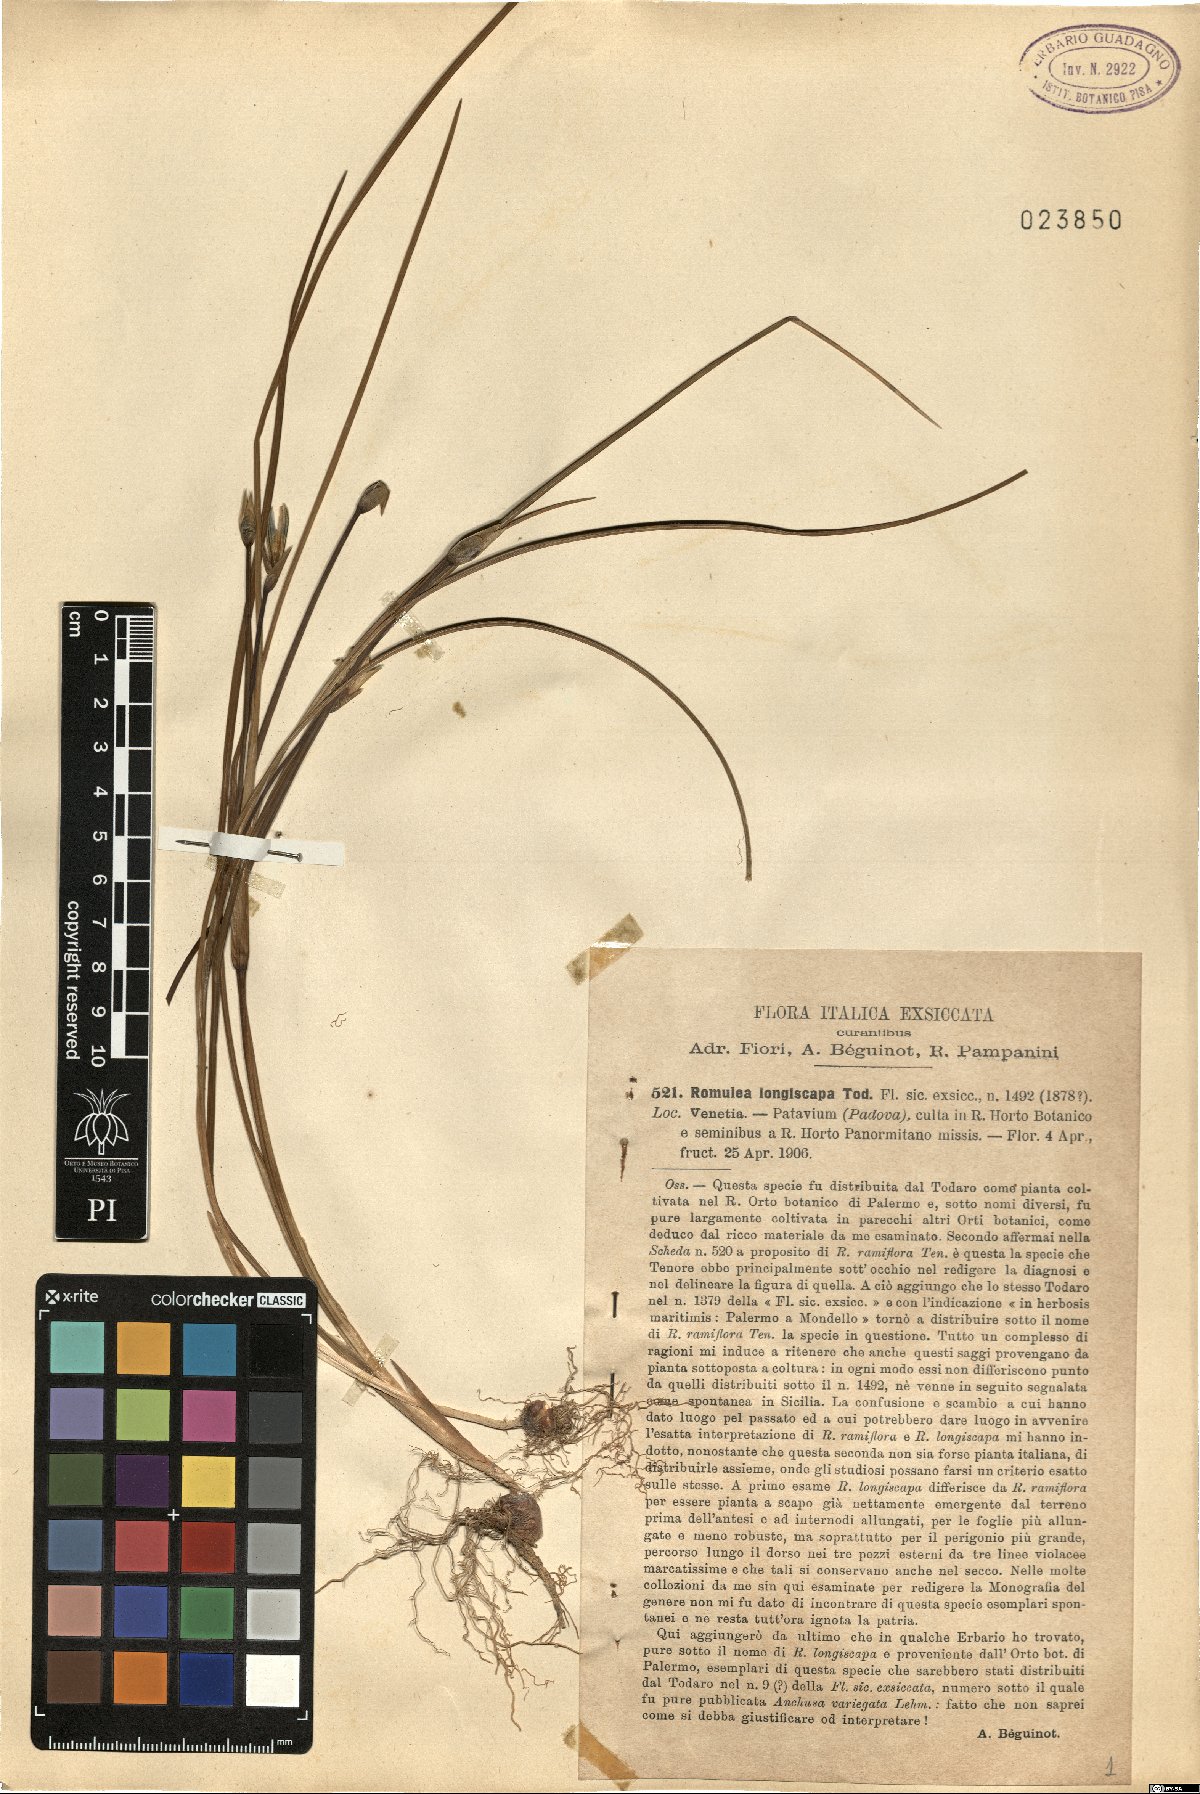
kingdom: Plantae
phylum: Tracheophyta
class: Liliopsida
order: Asparagales
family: Iridaceae
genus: Romulea
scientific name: Romulea columnae
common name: Sand-crocus
